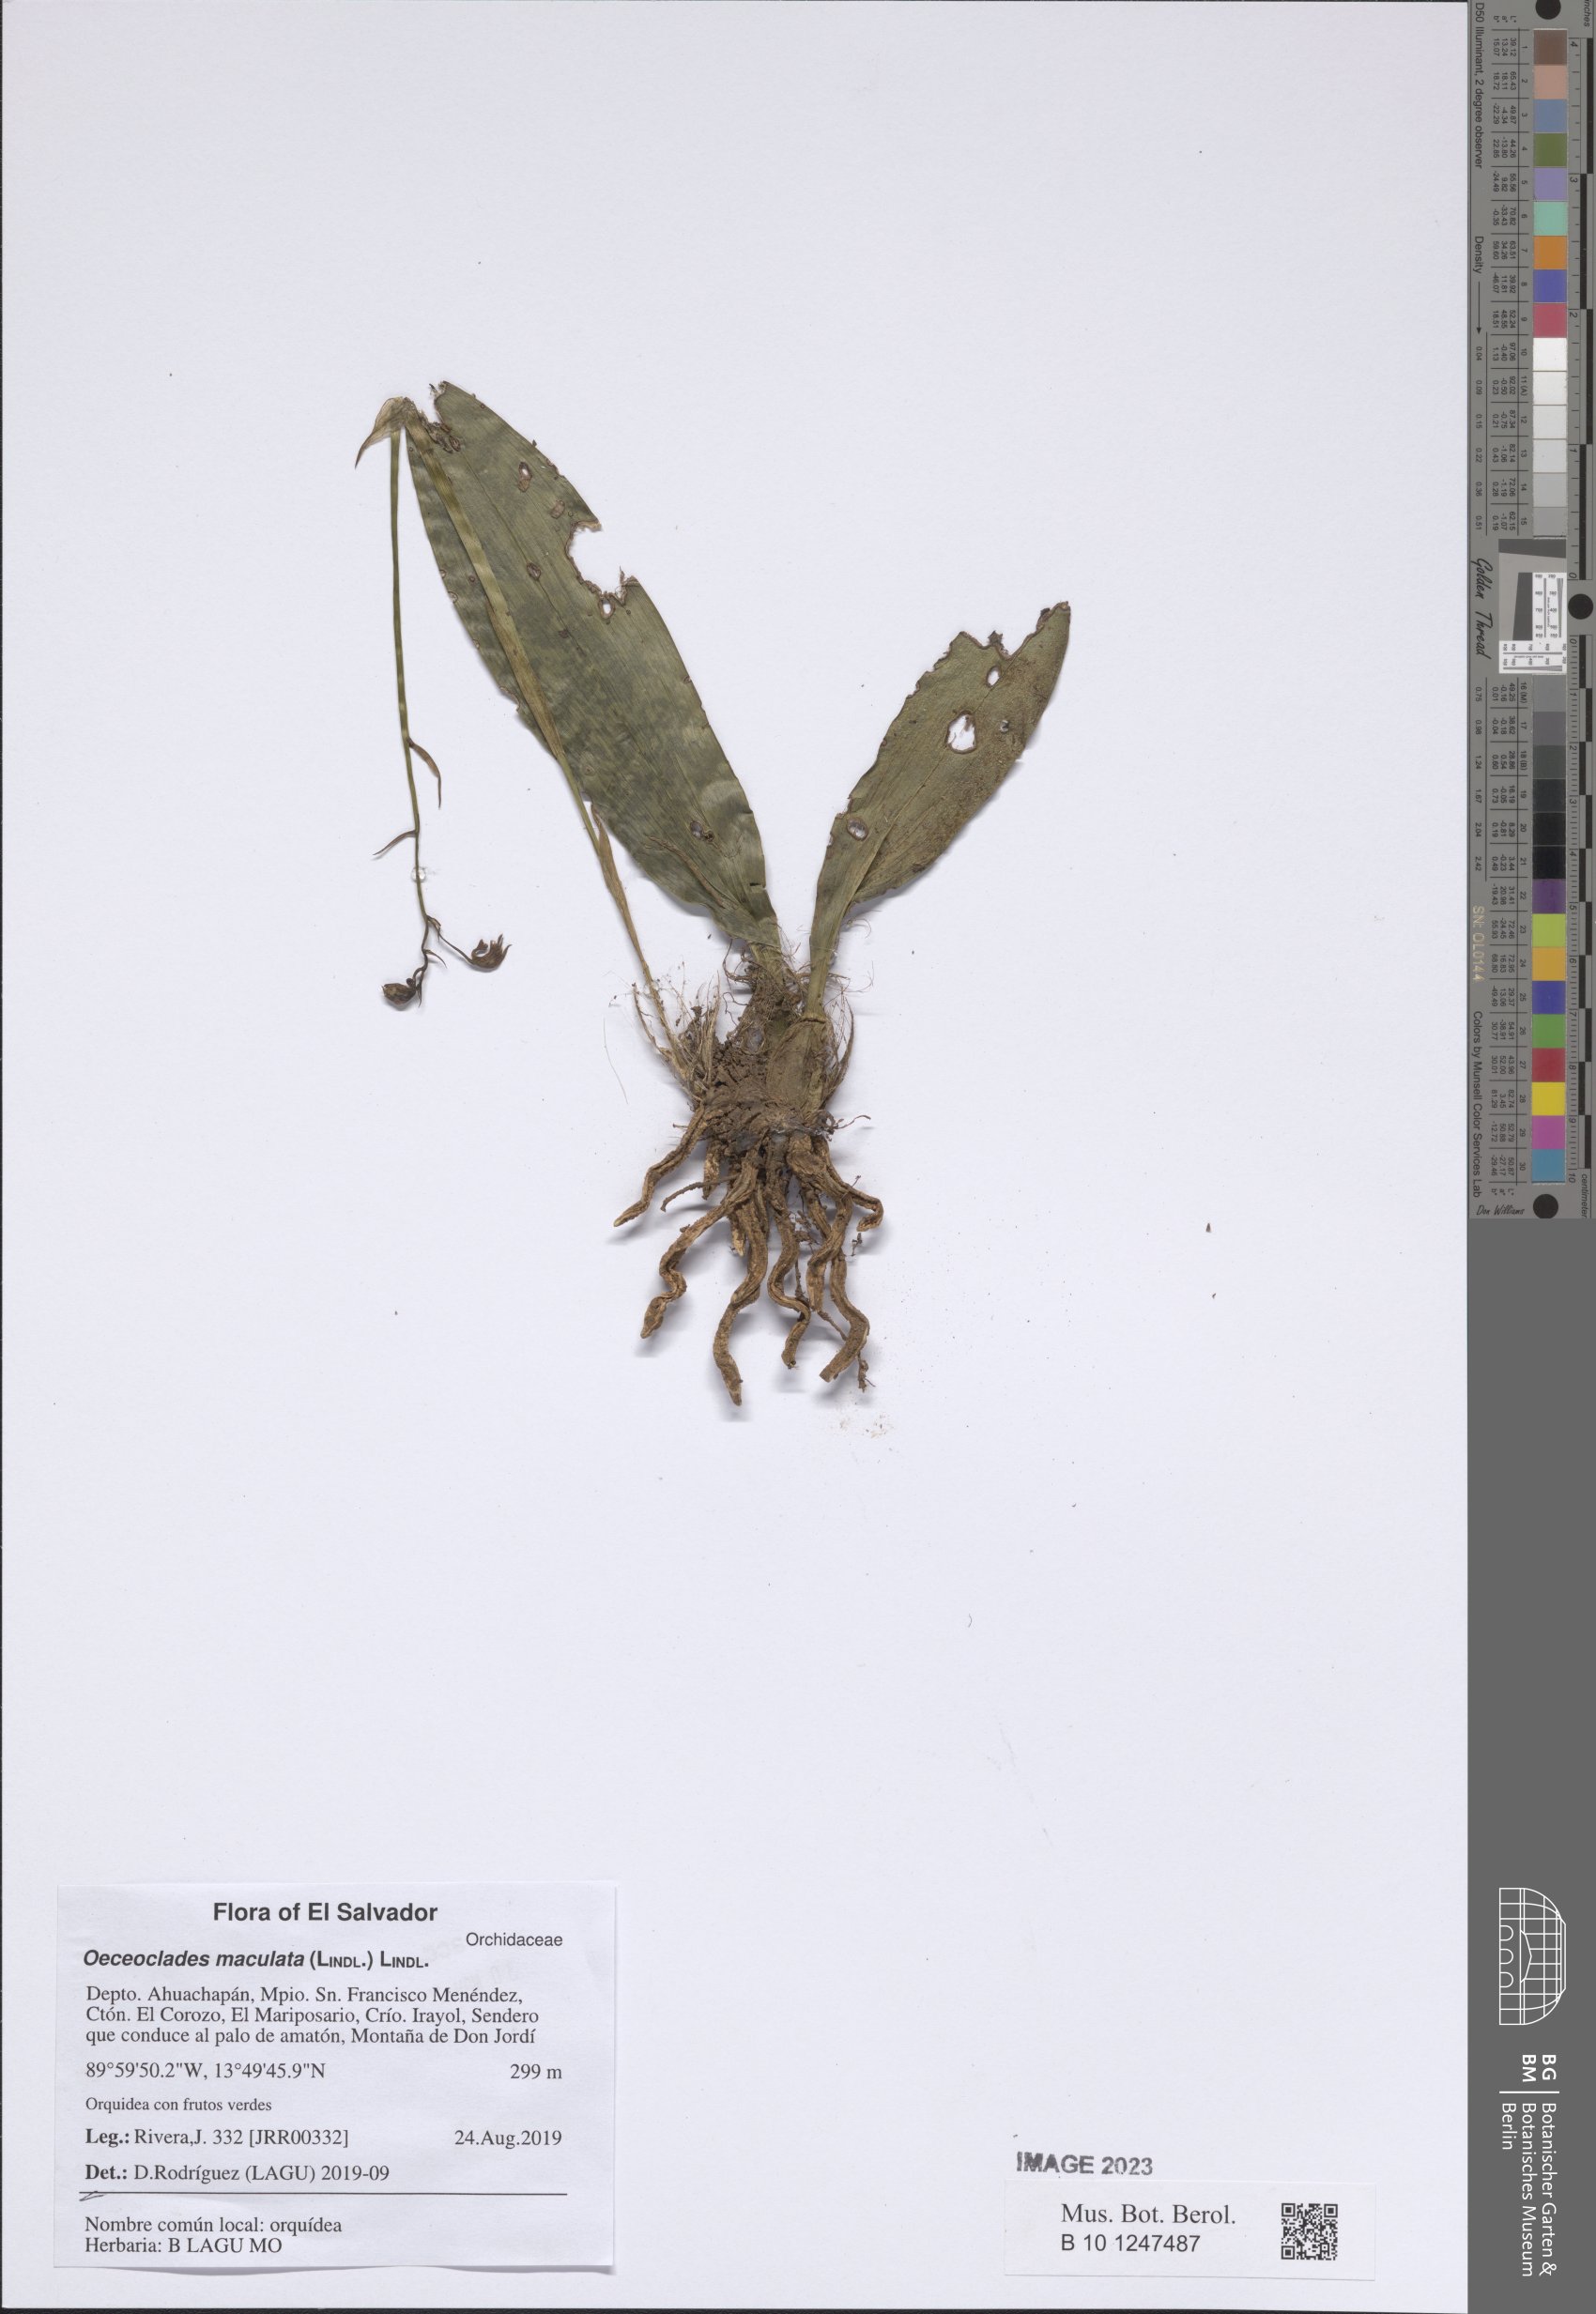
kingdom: Plantae
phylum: Tracheophyta
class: Liliopsida
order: Asparagales
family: Orchidaceae
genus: Eulophia
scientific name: Eulophia maculata
